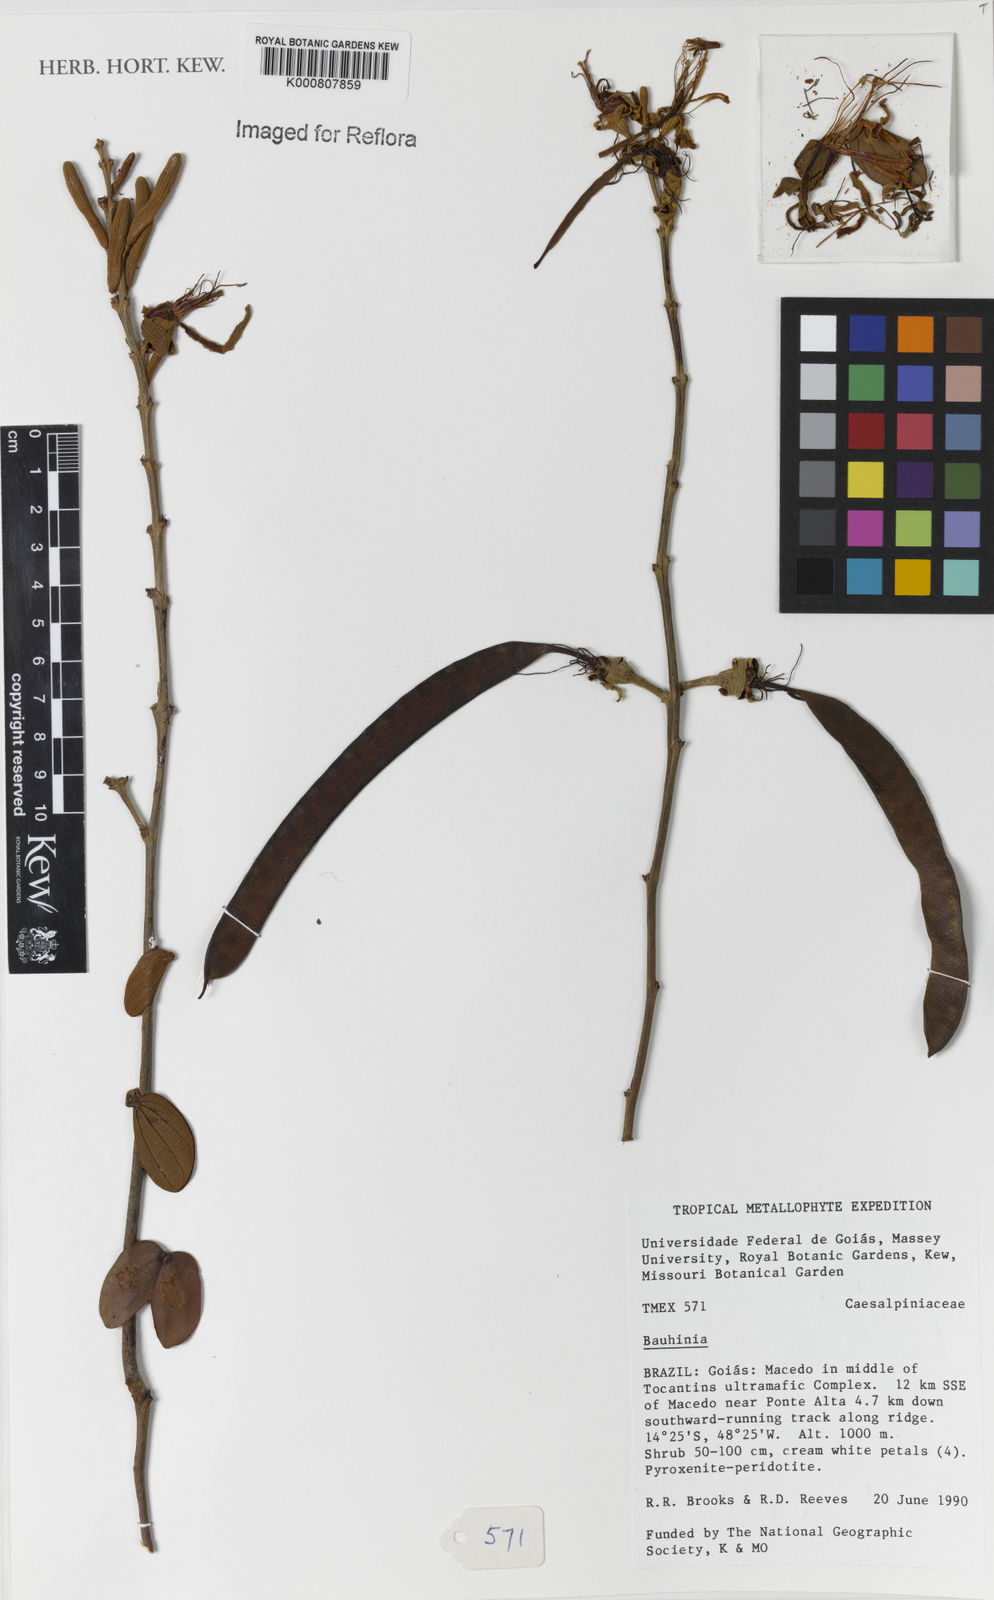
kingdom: Plantae
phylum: Tracheophyta
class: Magnoliopsida
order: Fabales
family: Fabaceae
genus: Bauhinia
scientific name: Bauhinia
